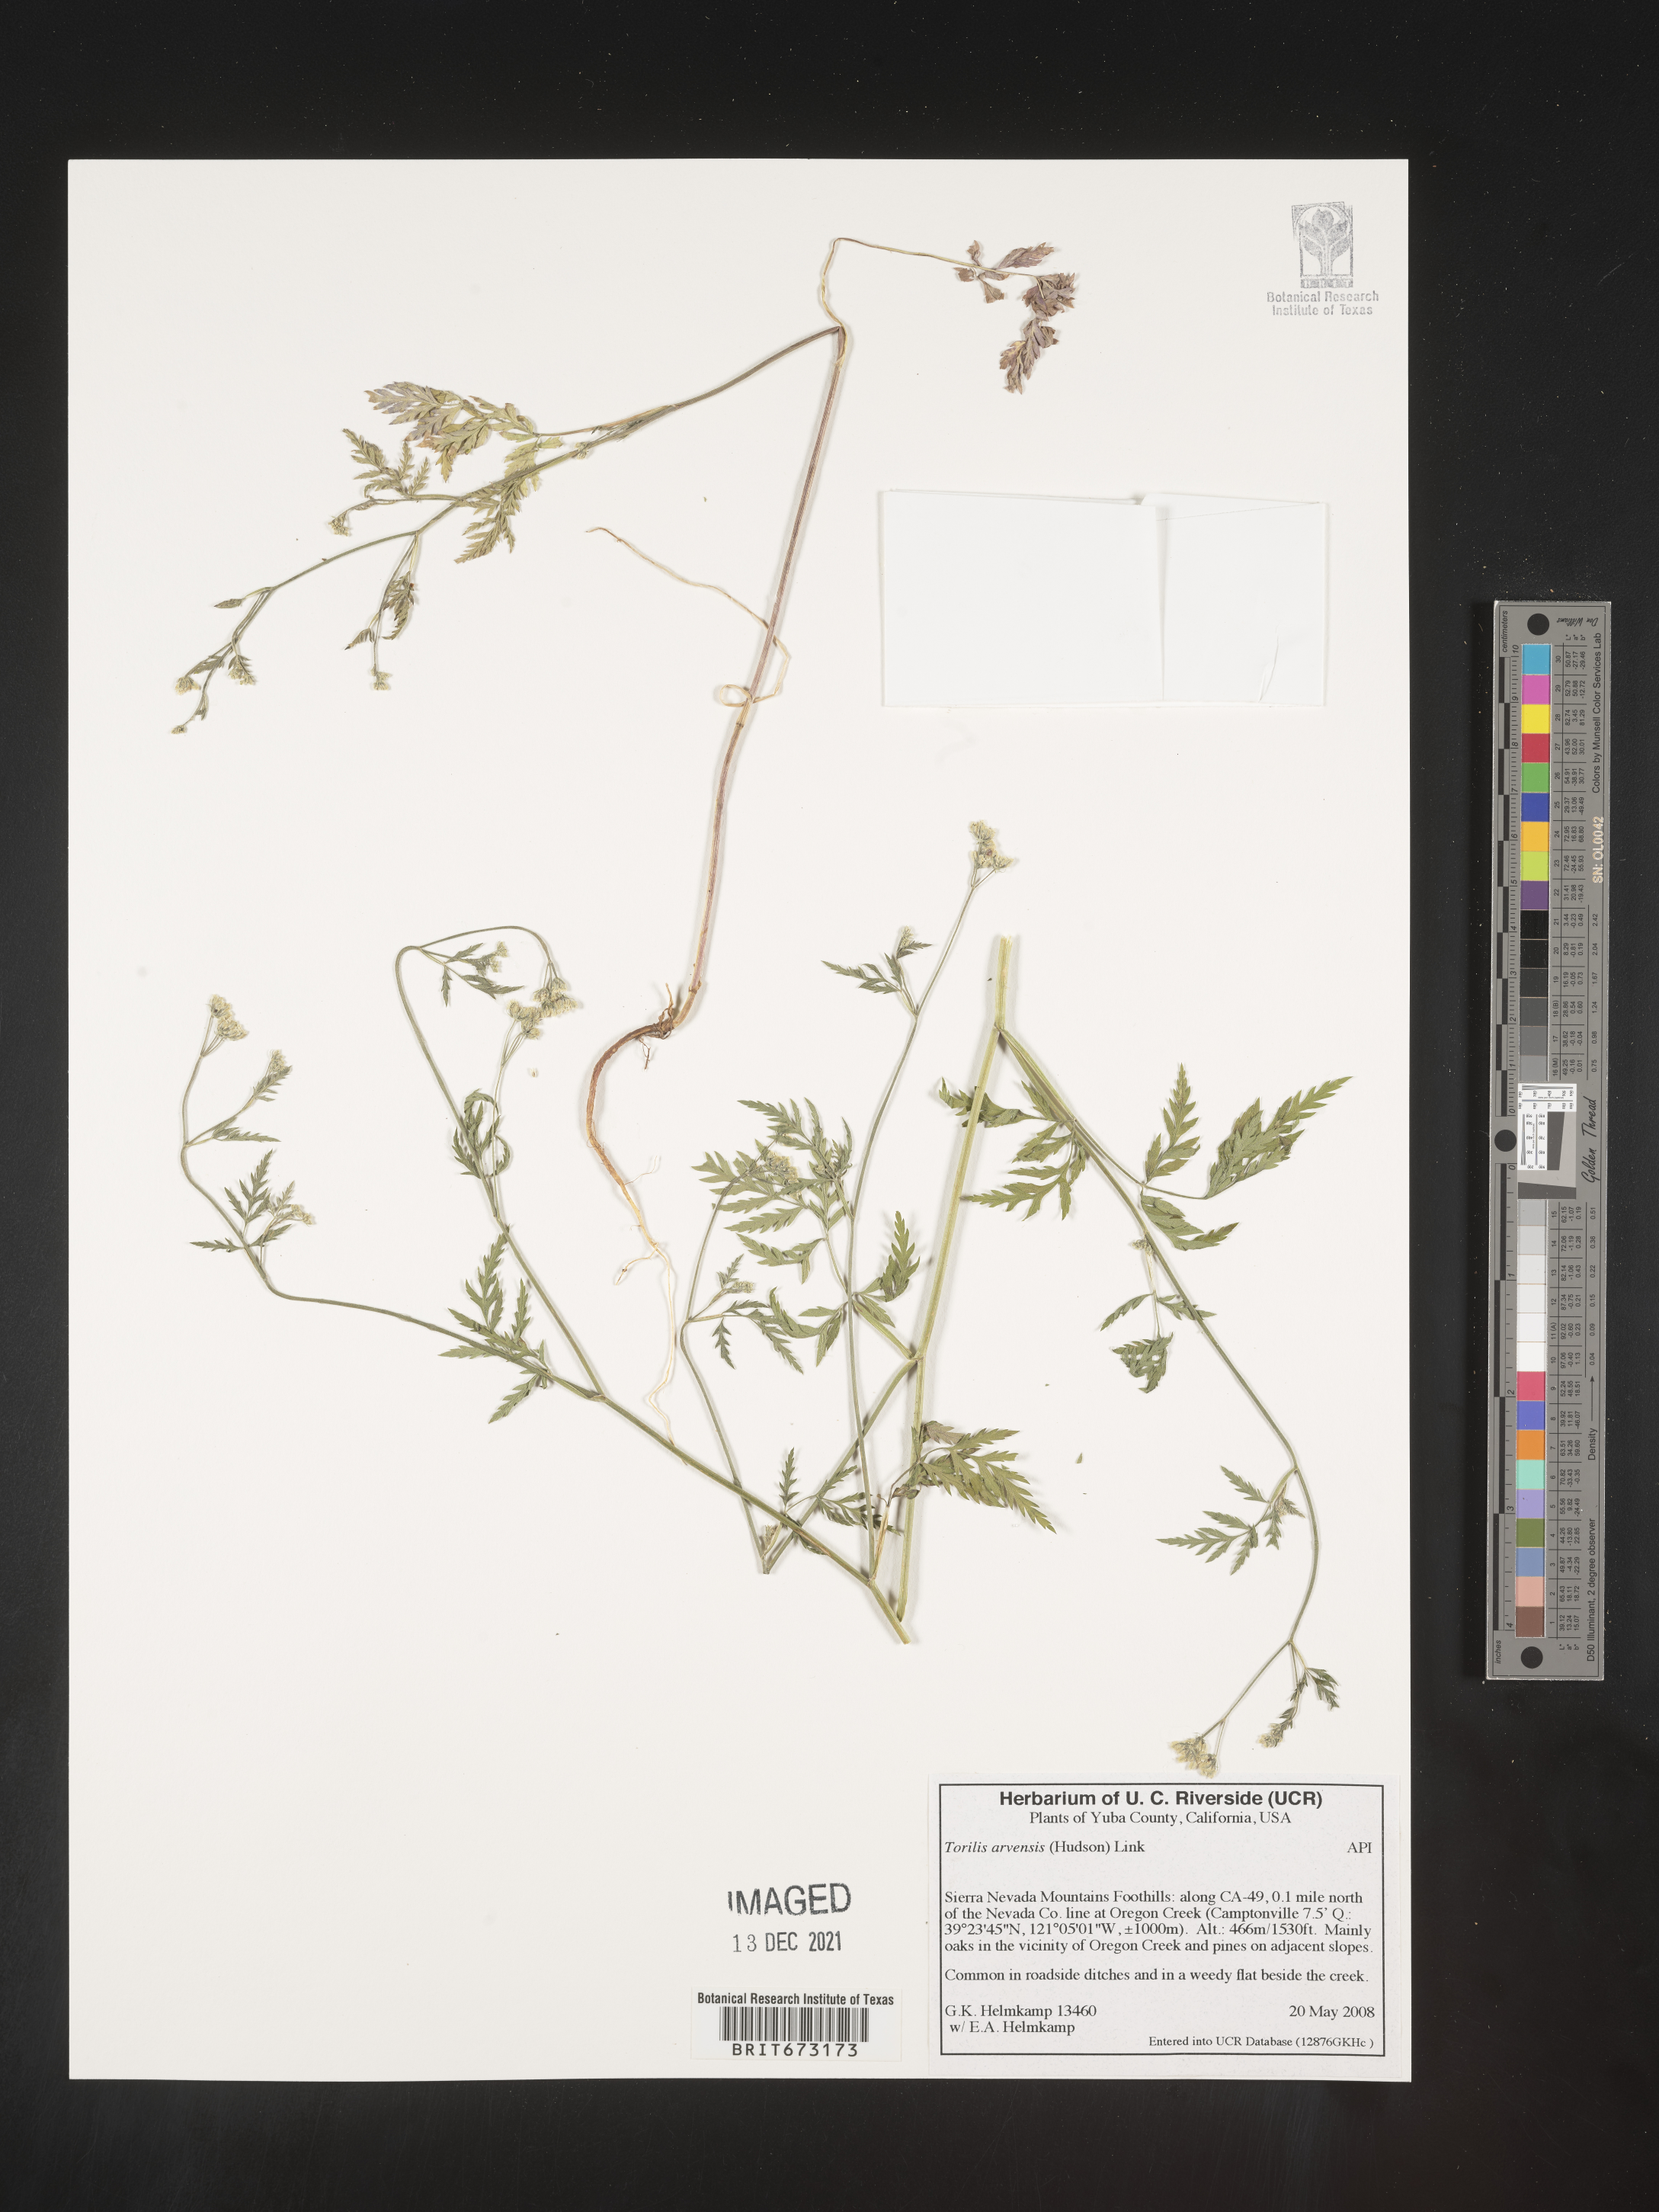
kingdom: Plantae
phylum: Tracheophyta
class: Magnoliopsida
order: Apiales
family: Apiaceae
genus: Torilis
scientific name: Torilis arvensis
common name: Spreading hedge-parsley
